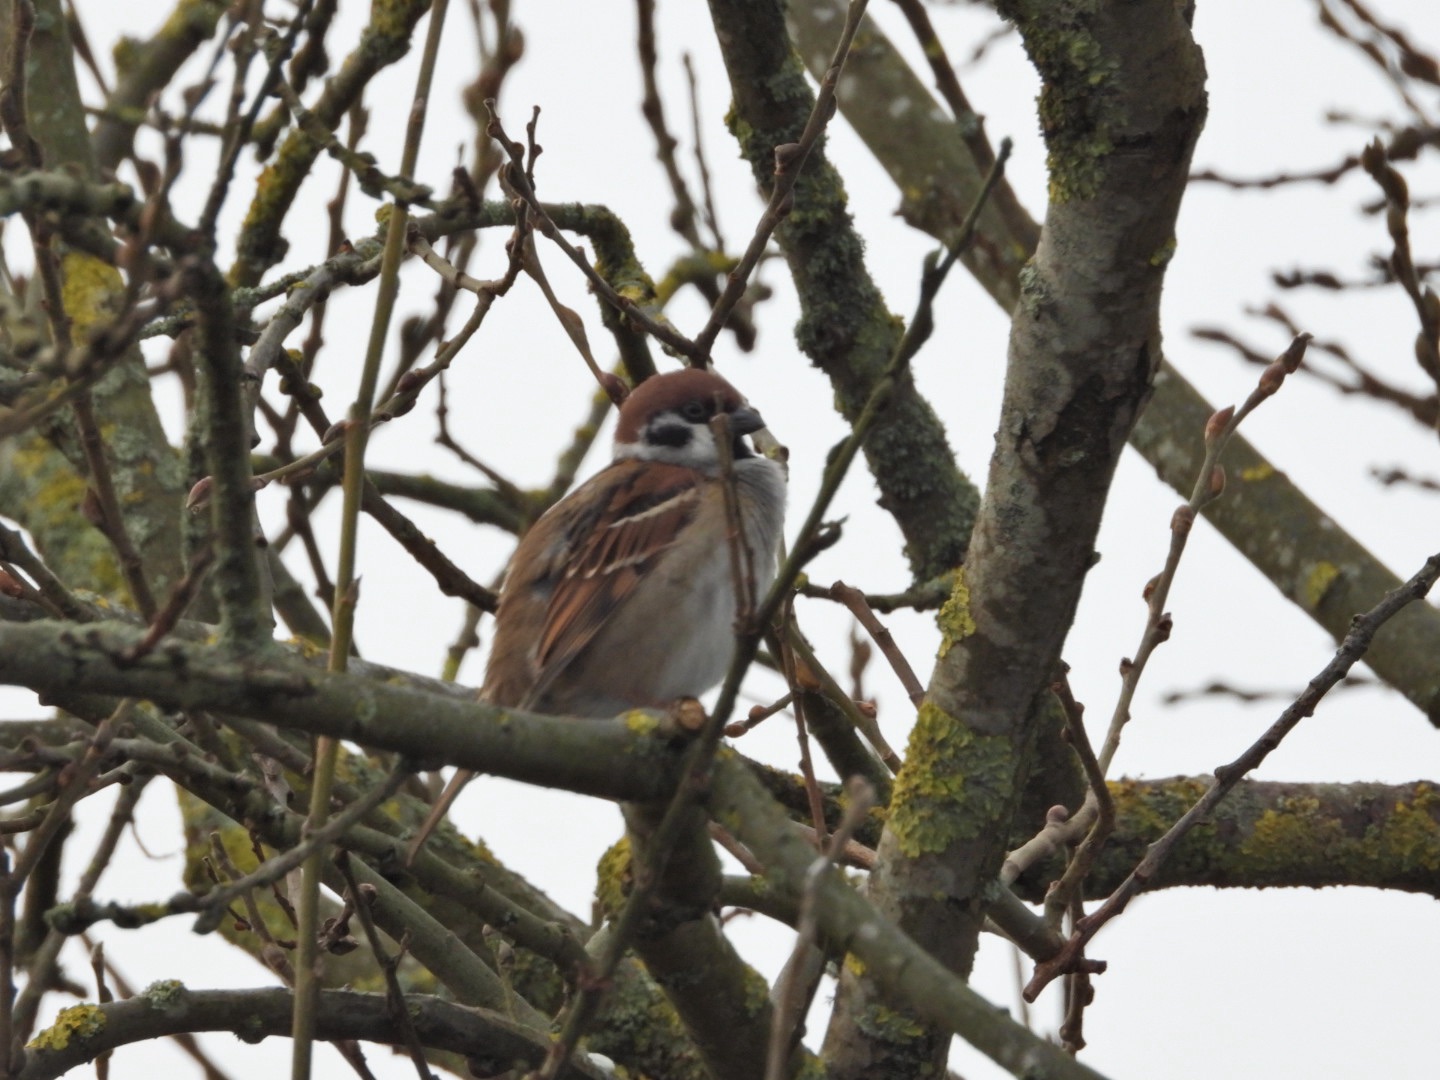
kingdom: Animalia
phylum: Chordata
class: Aves
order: Passeriformes
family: Passeridae
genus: Passer
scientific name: Passer montanus
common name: Skovspurv
